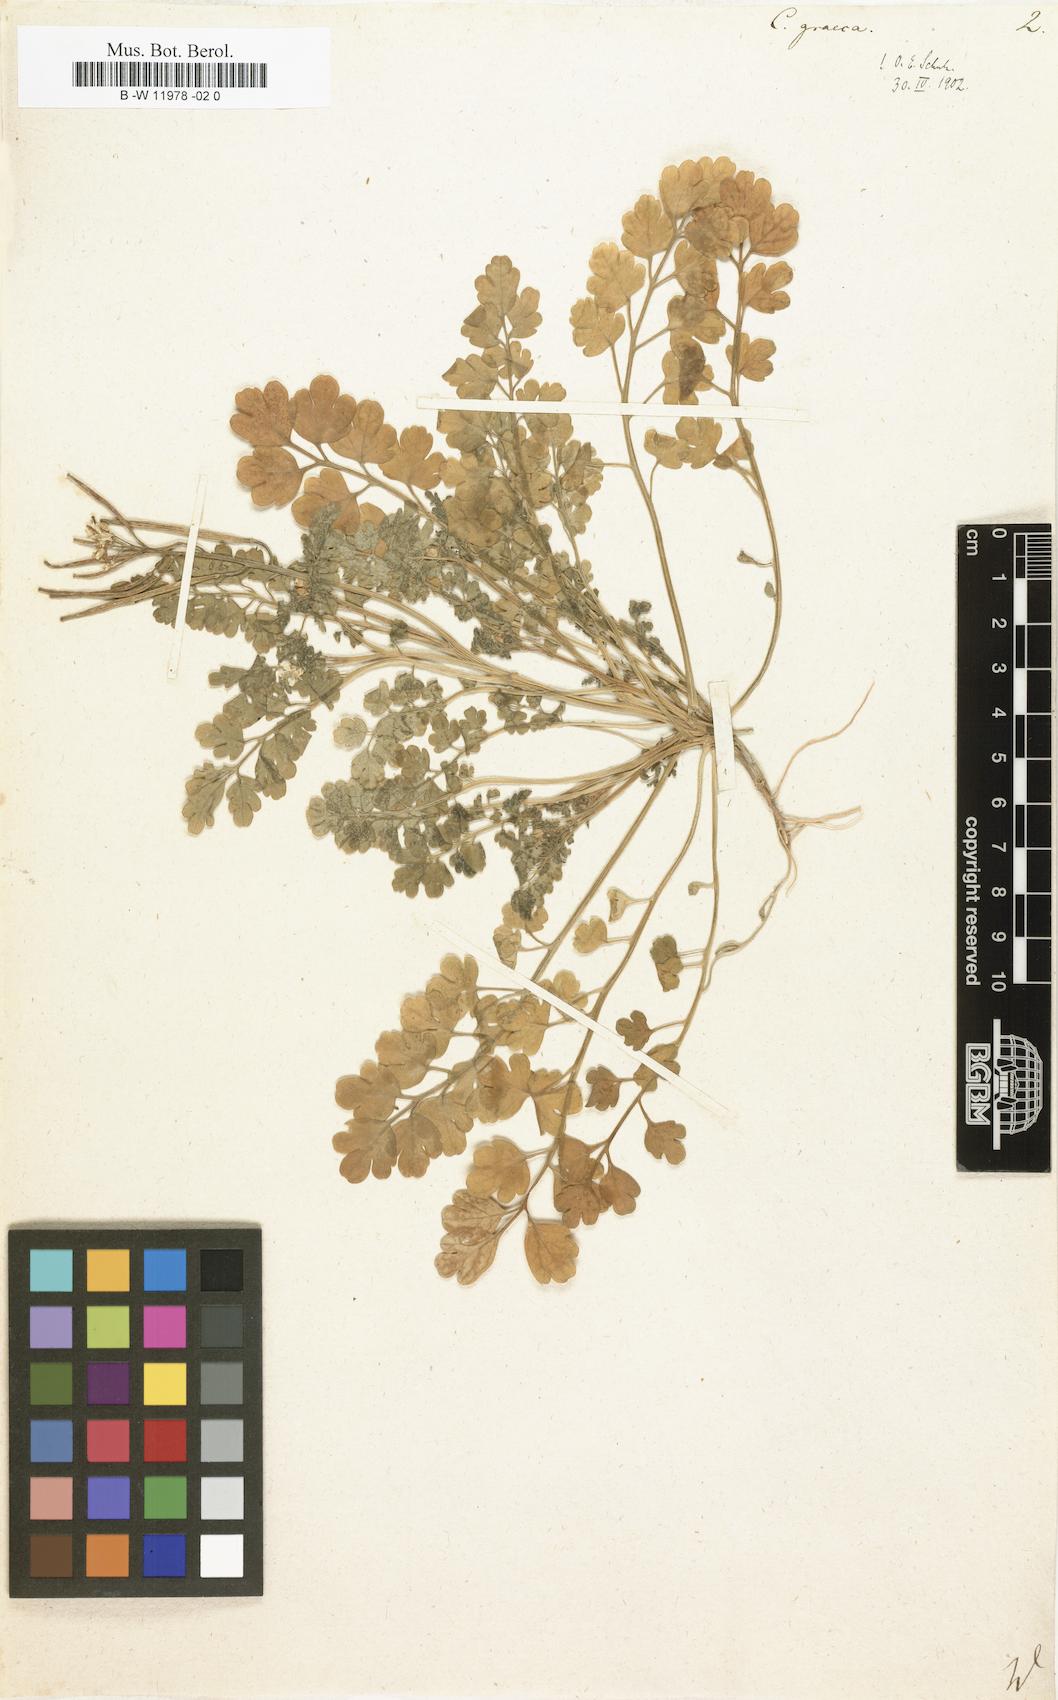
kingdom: Plantae
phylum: Tracheophyta
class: Magnoliopsida
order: Brassicales
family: Brassicaceae
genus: Cardamine
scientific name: Cardamine graeca
